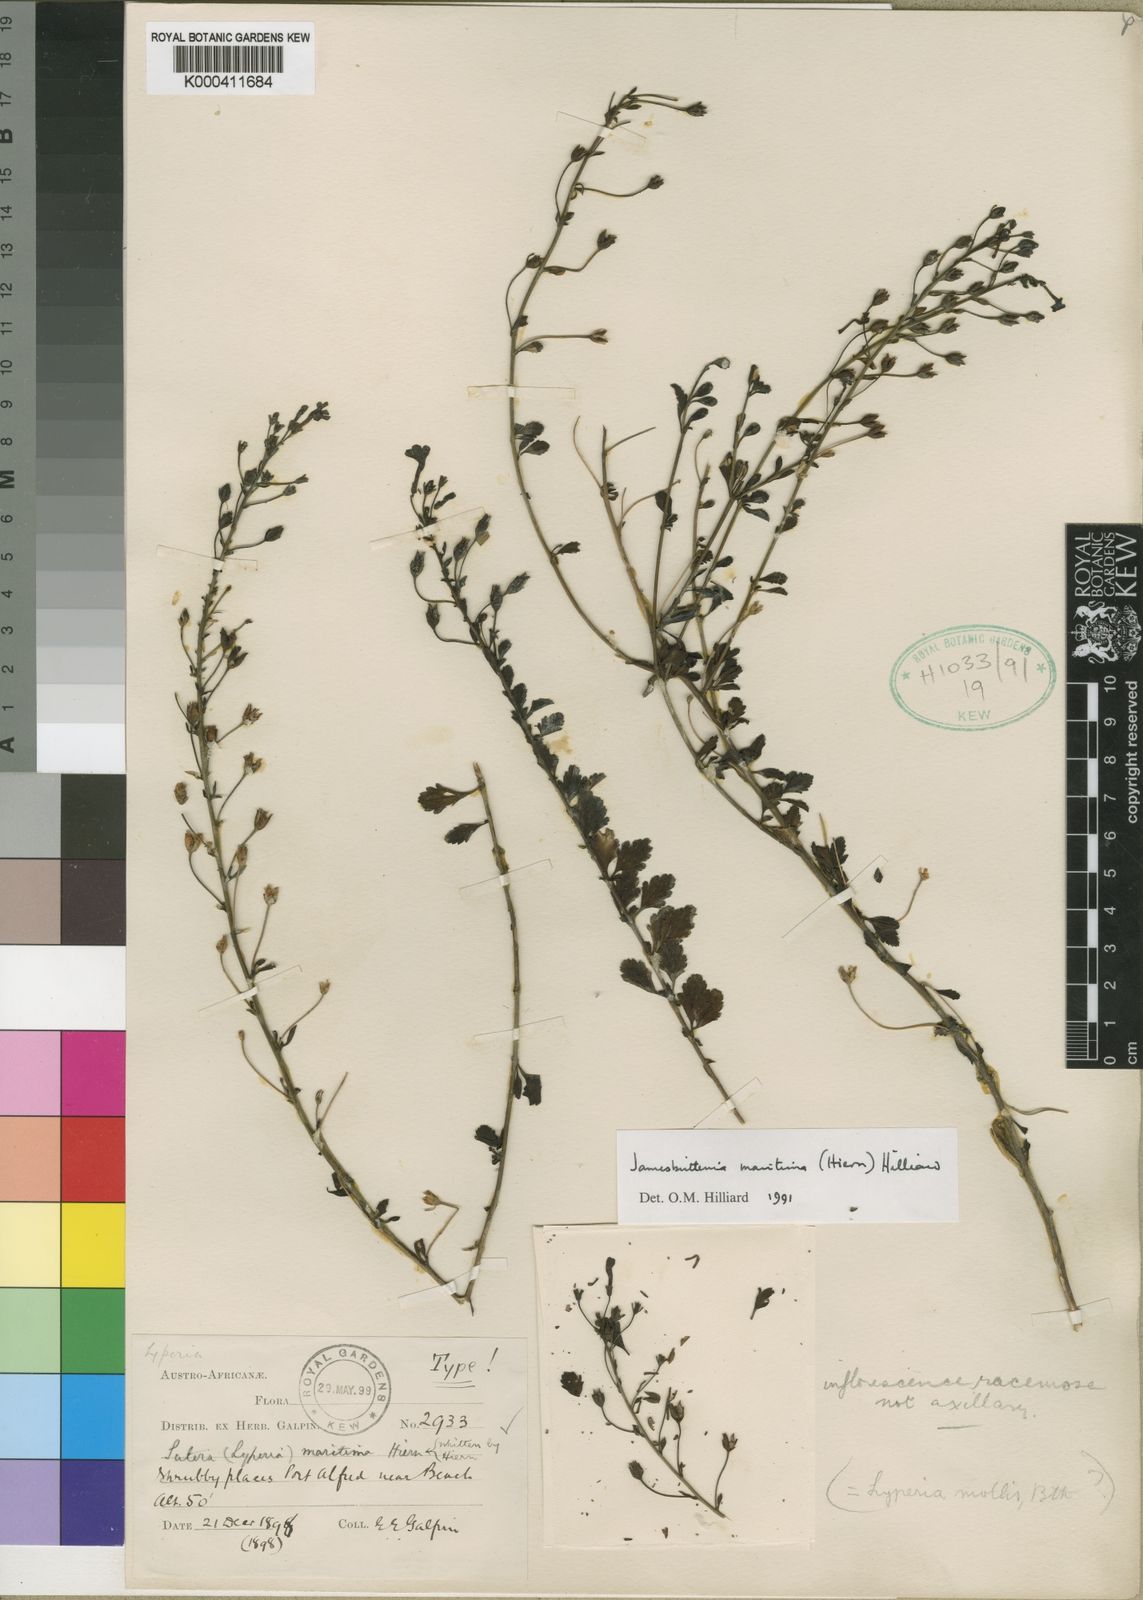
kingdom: Plantae
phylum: Tracheophyta
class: Magnoliopsida
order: Lamiales
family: Scrophulariaceae
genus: Jamesbrittenia
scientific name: Jamesbrittenia maritima
